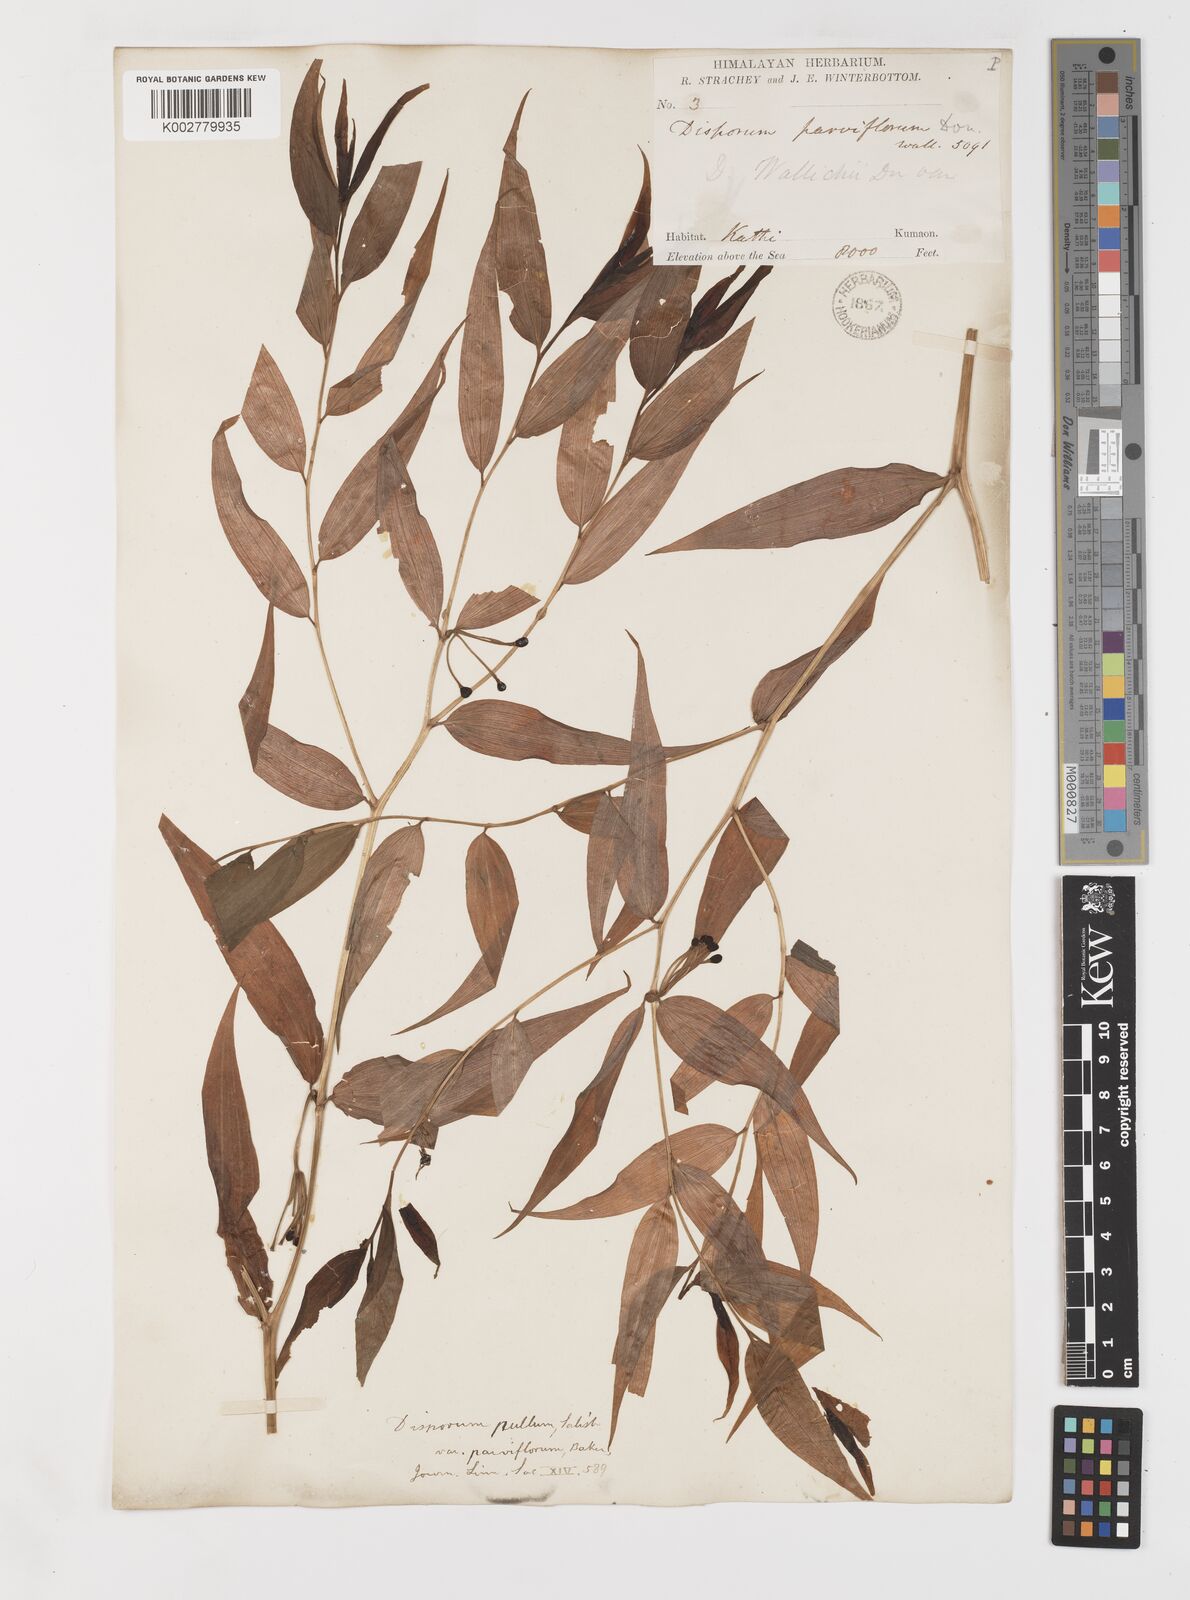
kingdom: Plantae
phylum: Tracheophyta
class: Liliopsida
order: Liliales
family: Colchicaceae
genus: Disporum
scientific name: Disporum cantoniense
